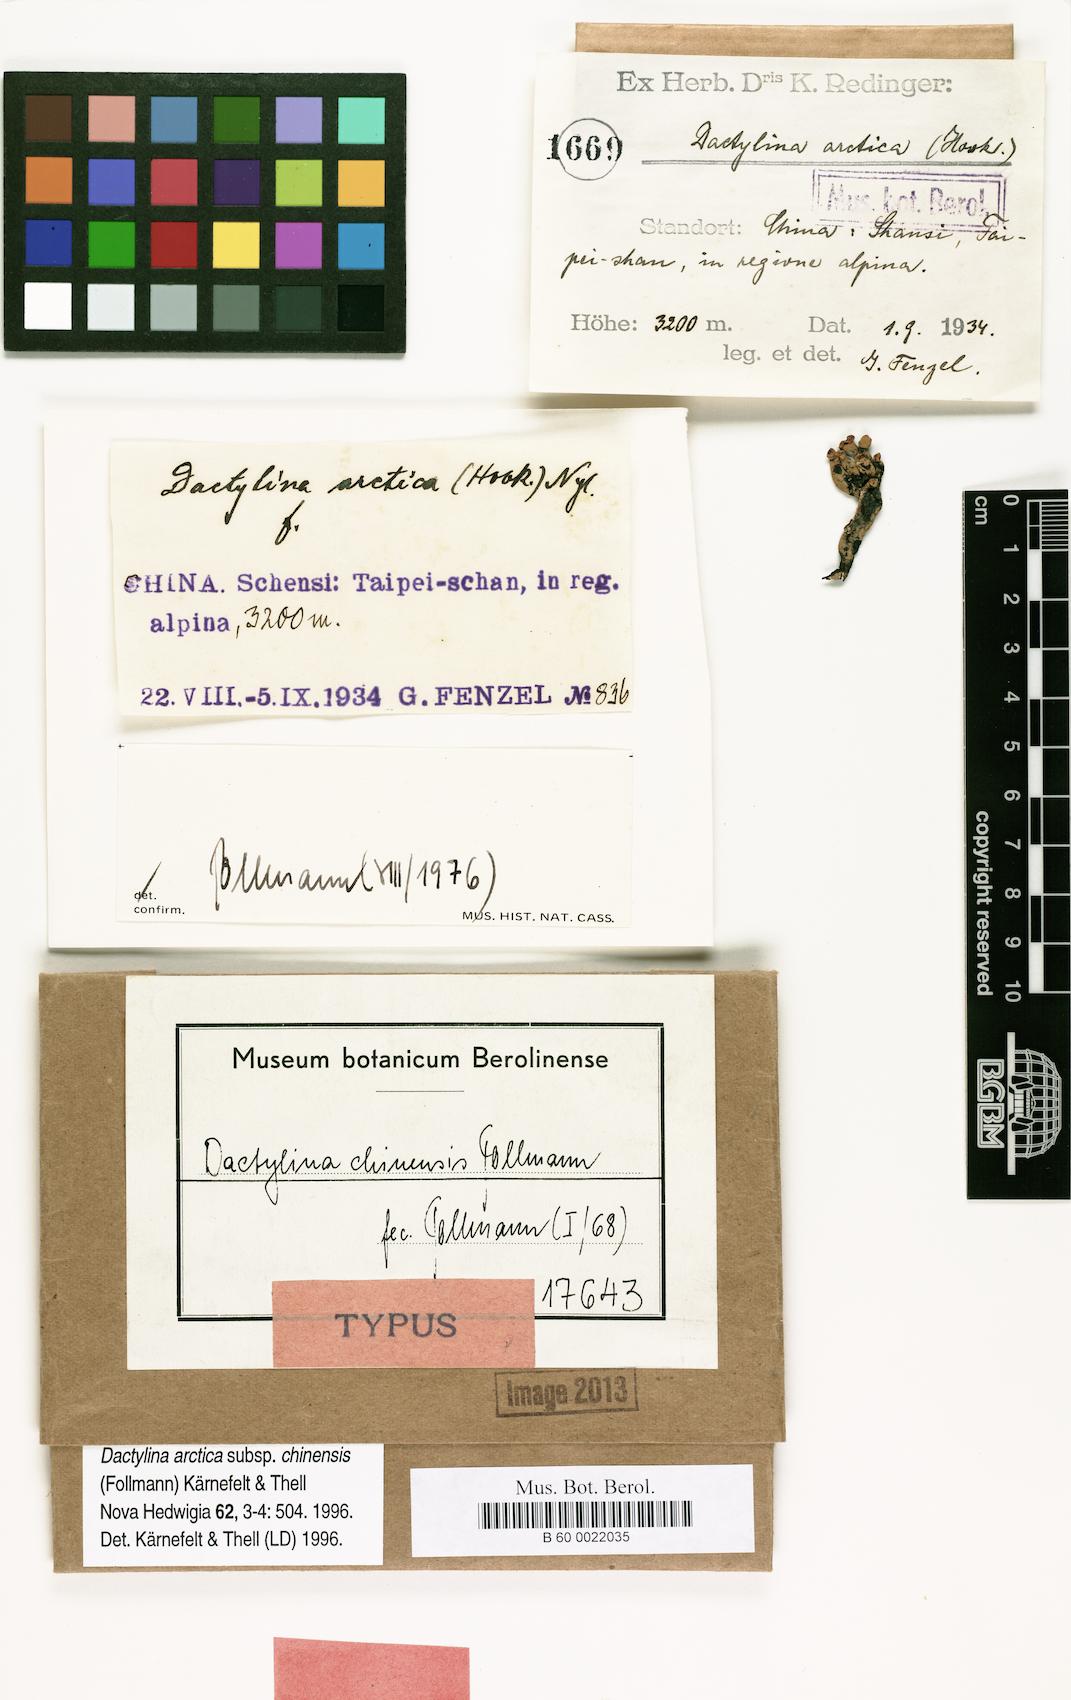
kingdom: Fungi
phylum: Ascomycota
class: Lecanoromycetes
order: Lecanorales
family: Parmeliaceae
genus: Dactylina
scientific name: Dactylina
